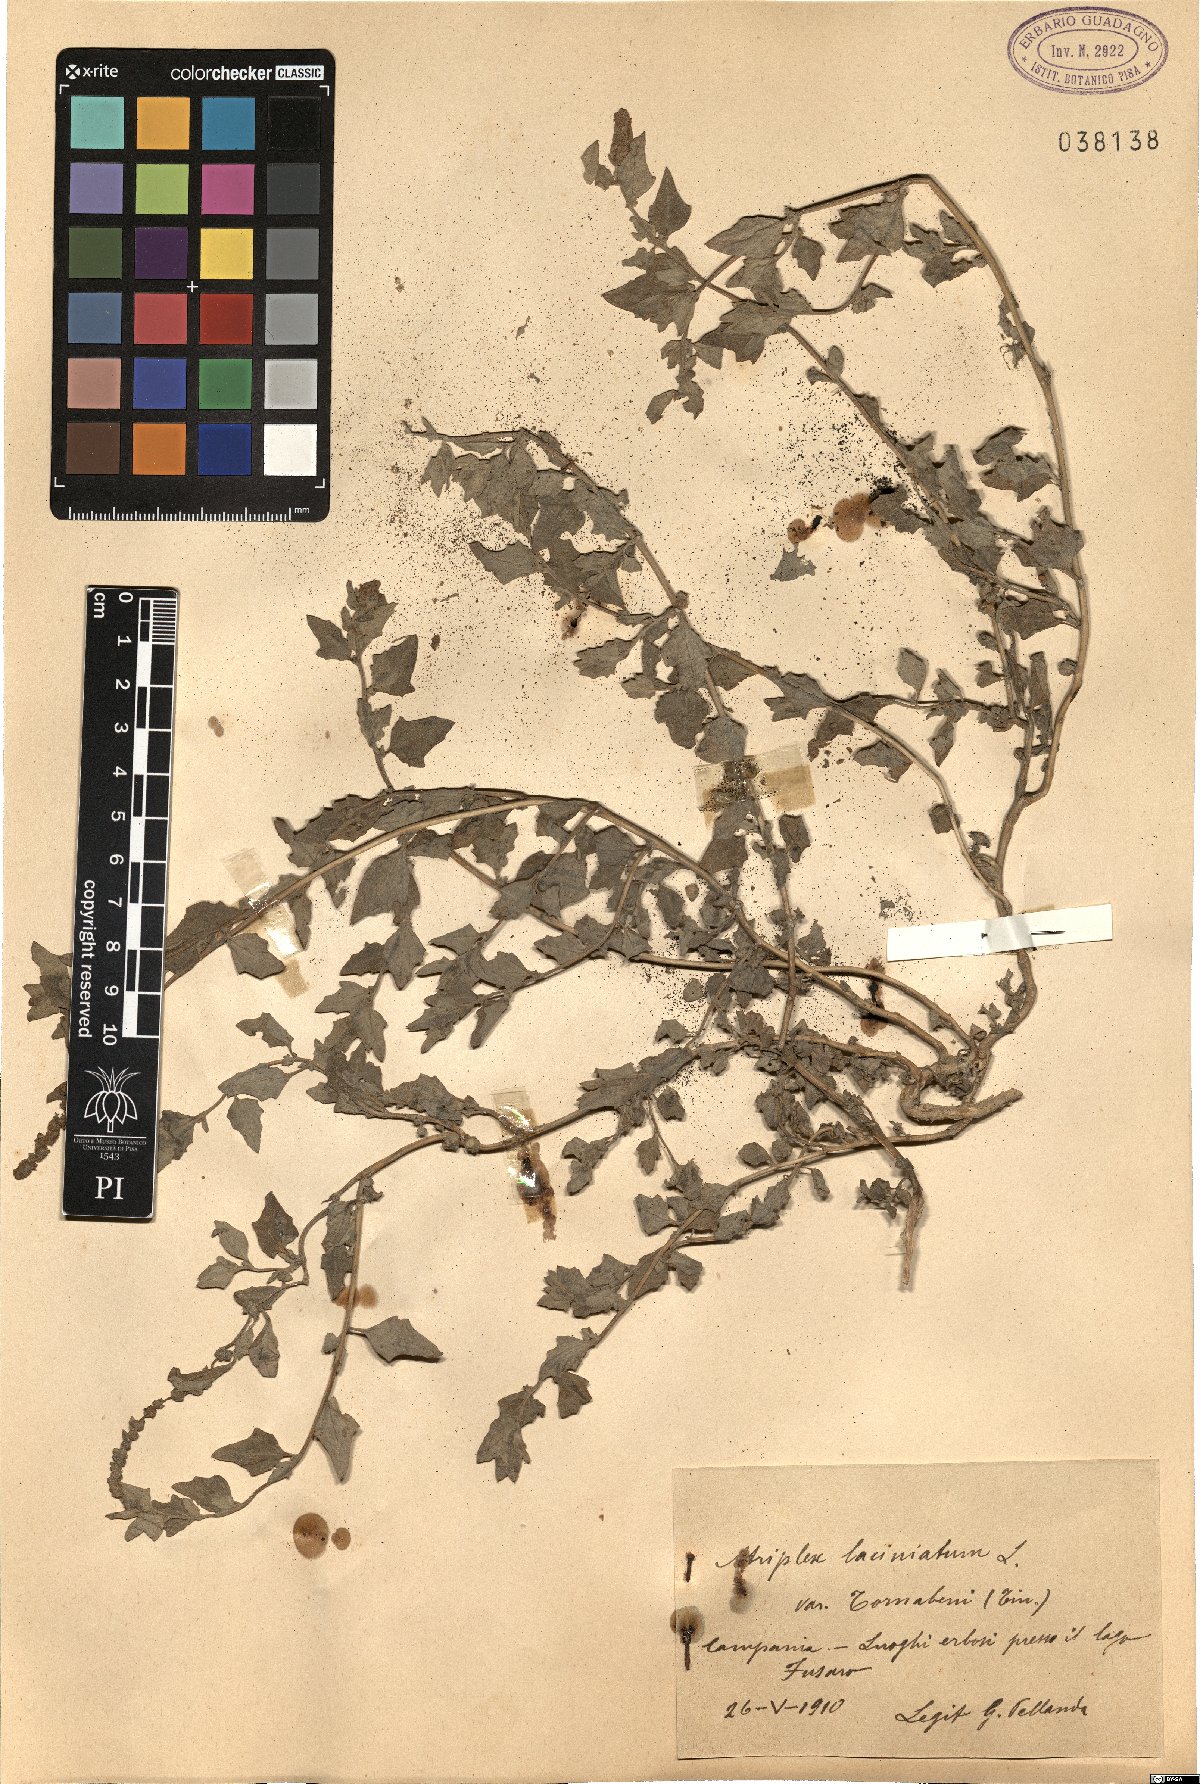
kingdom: Plantae
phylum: Tracheophyta
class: Magnoliopsida
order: Caryophyllales
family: Amaranthaceae
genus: Atriplex
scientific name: Atriplex tornabenei
